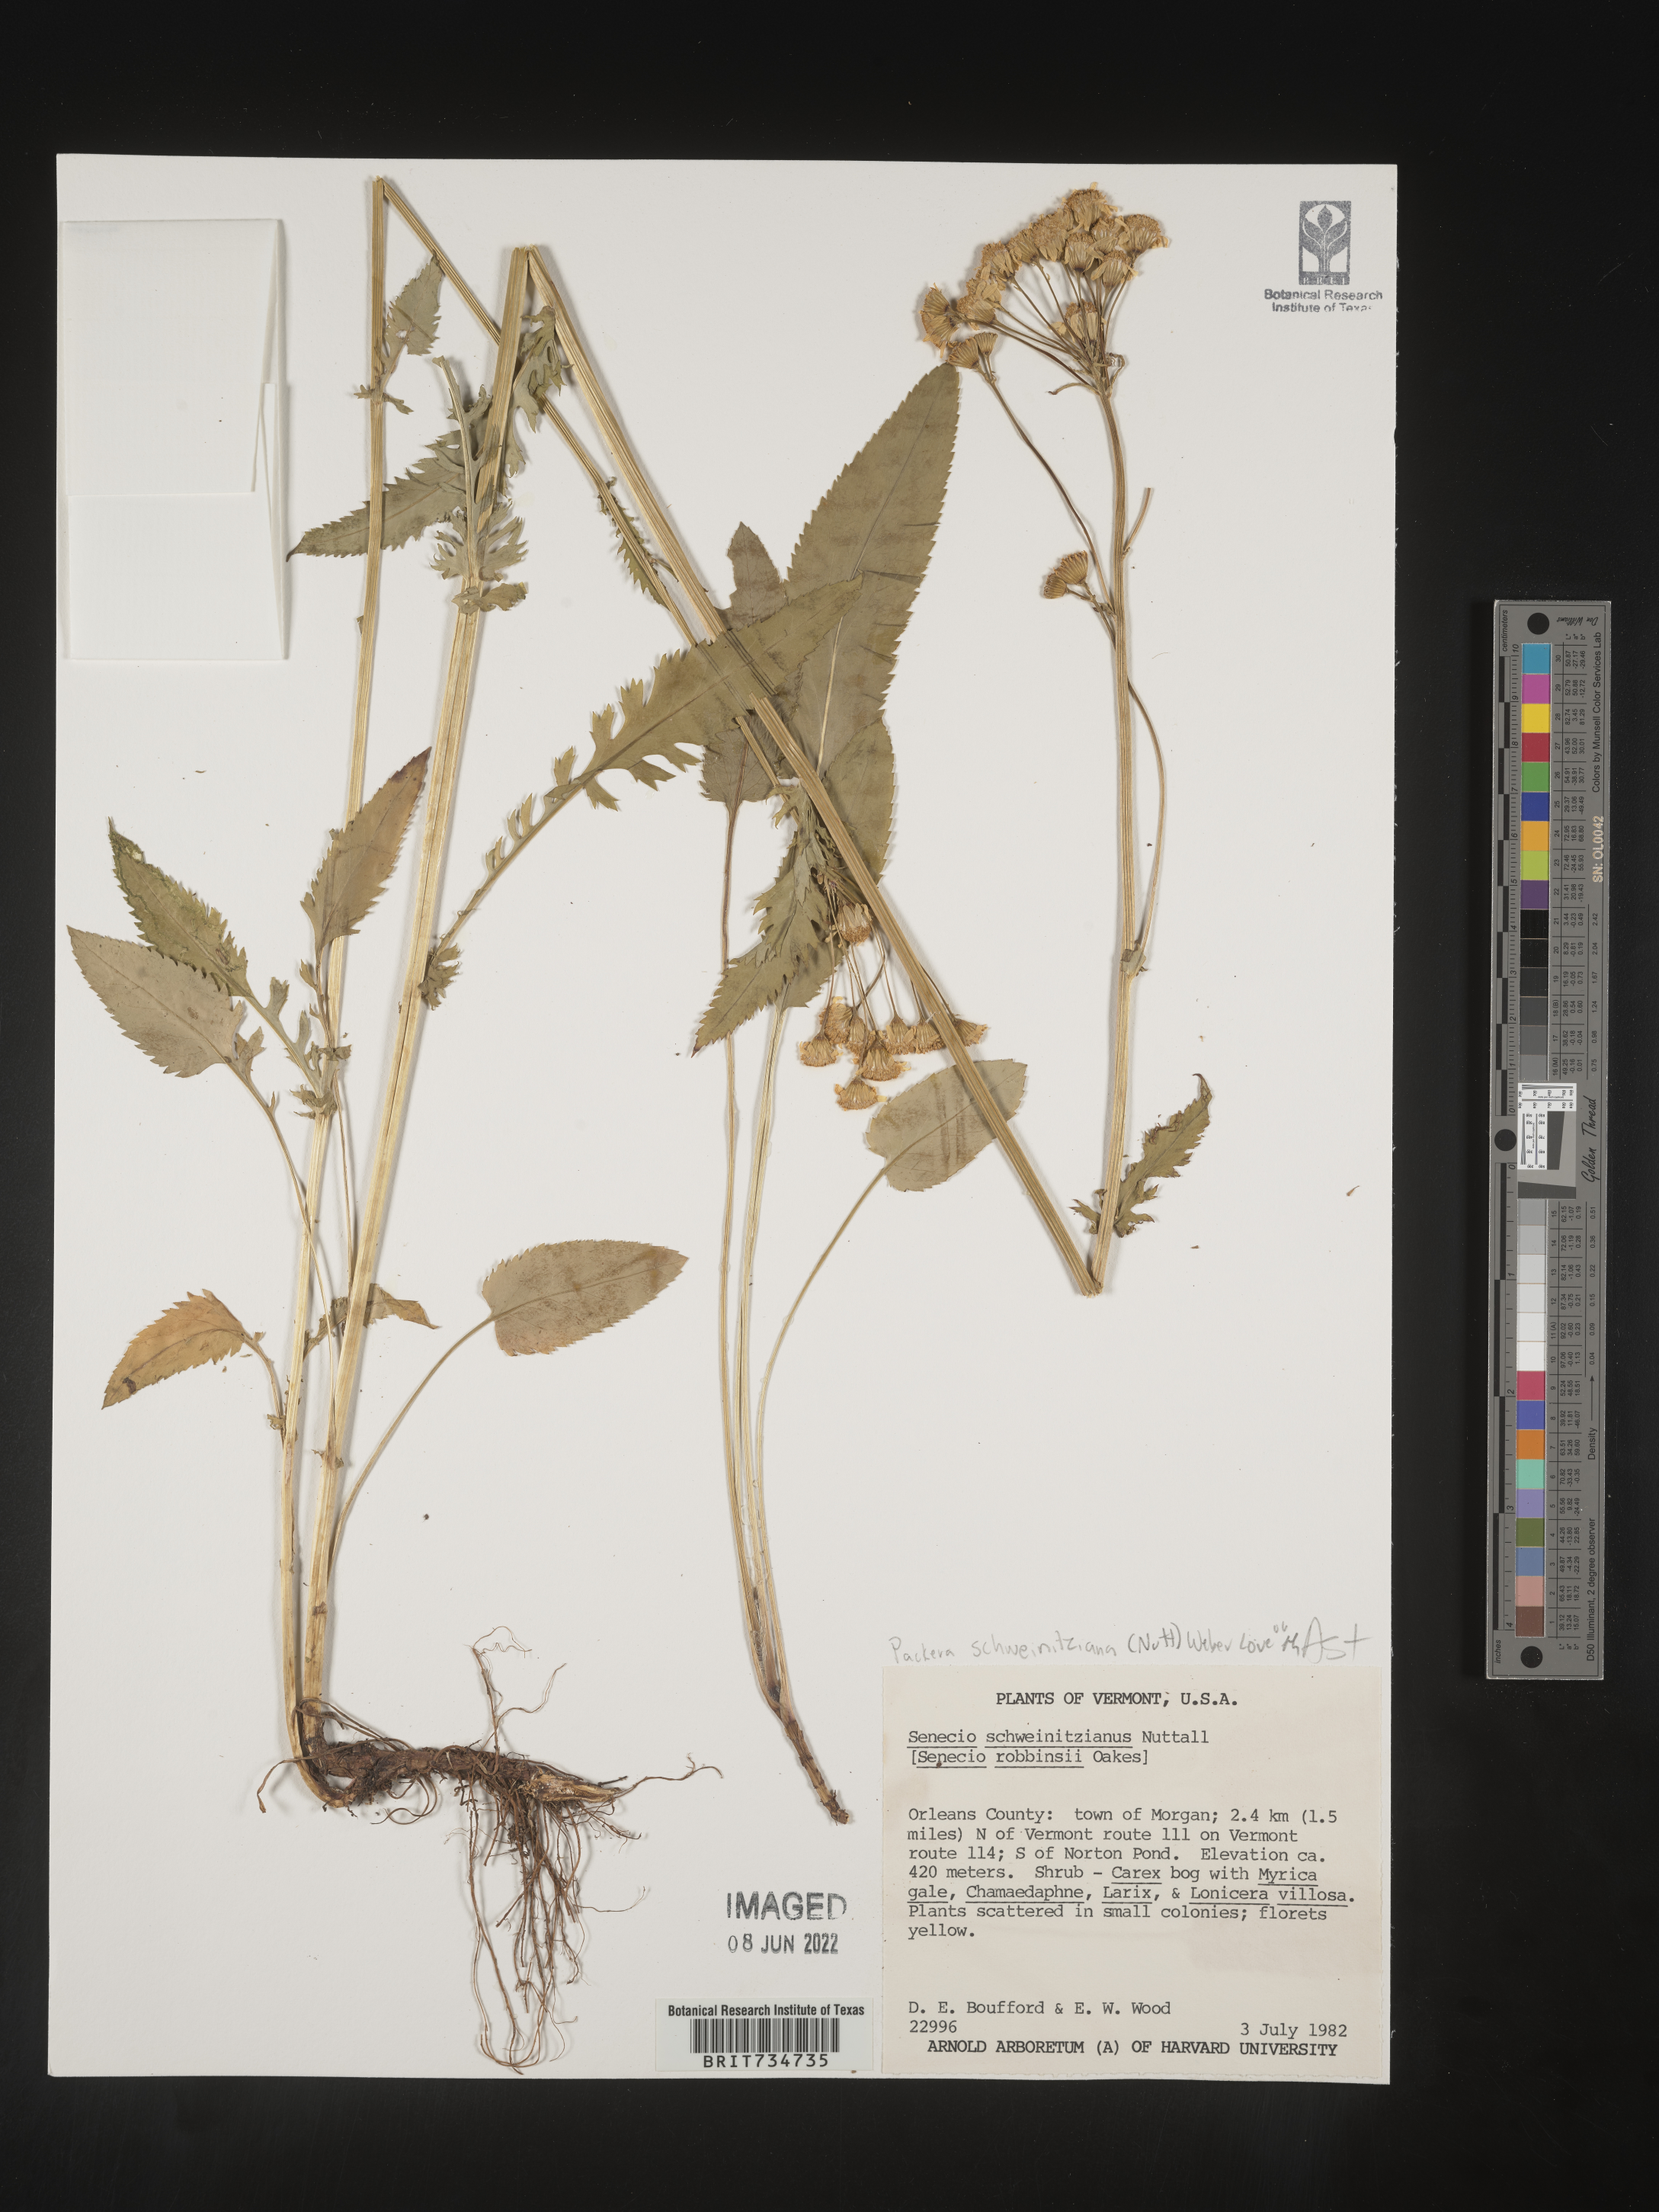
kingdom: Plantae
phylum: Tracheophyta
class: Magnoliopsida
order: Asterales
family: Asteraceae
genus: Packera
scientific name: Packera schweinitziana
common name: Schweinitz's ragwort
